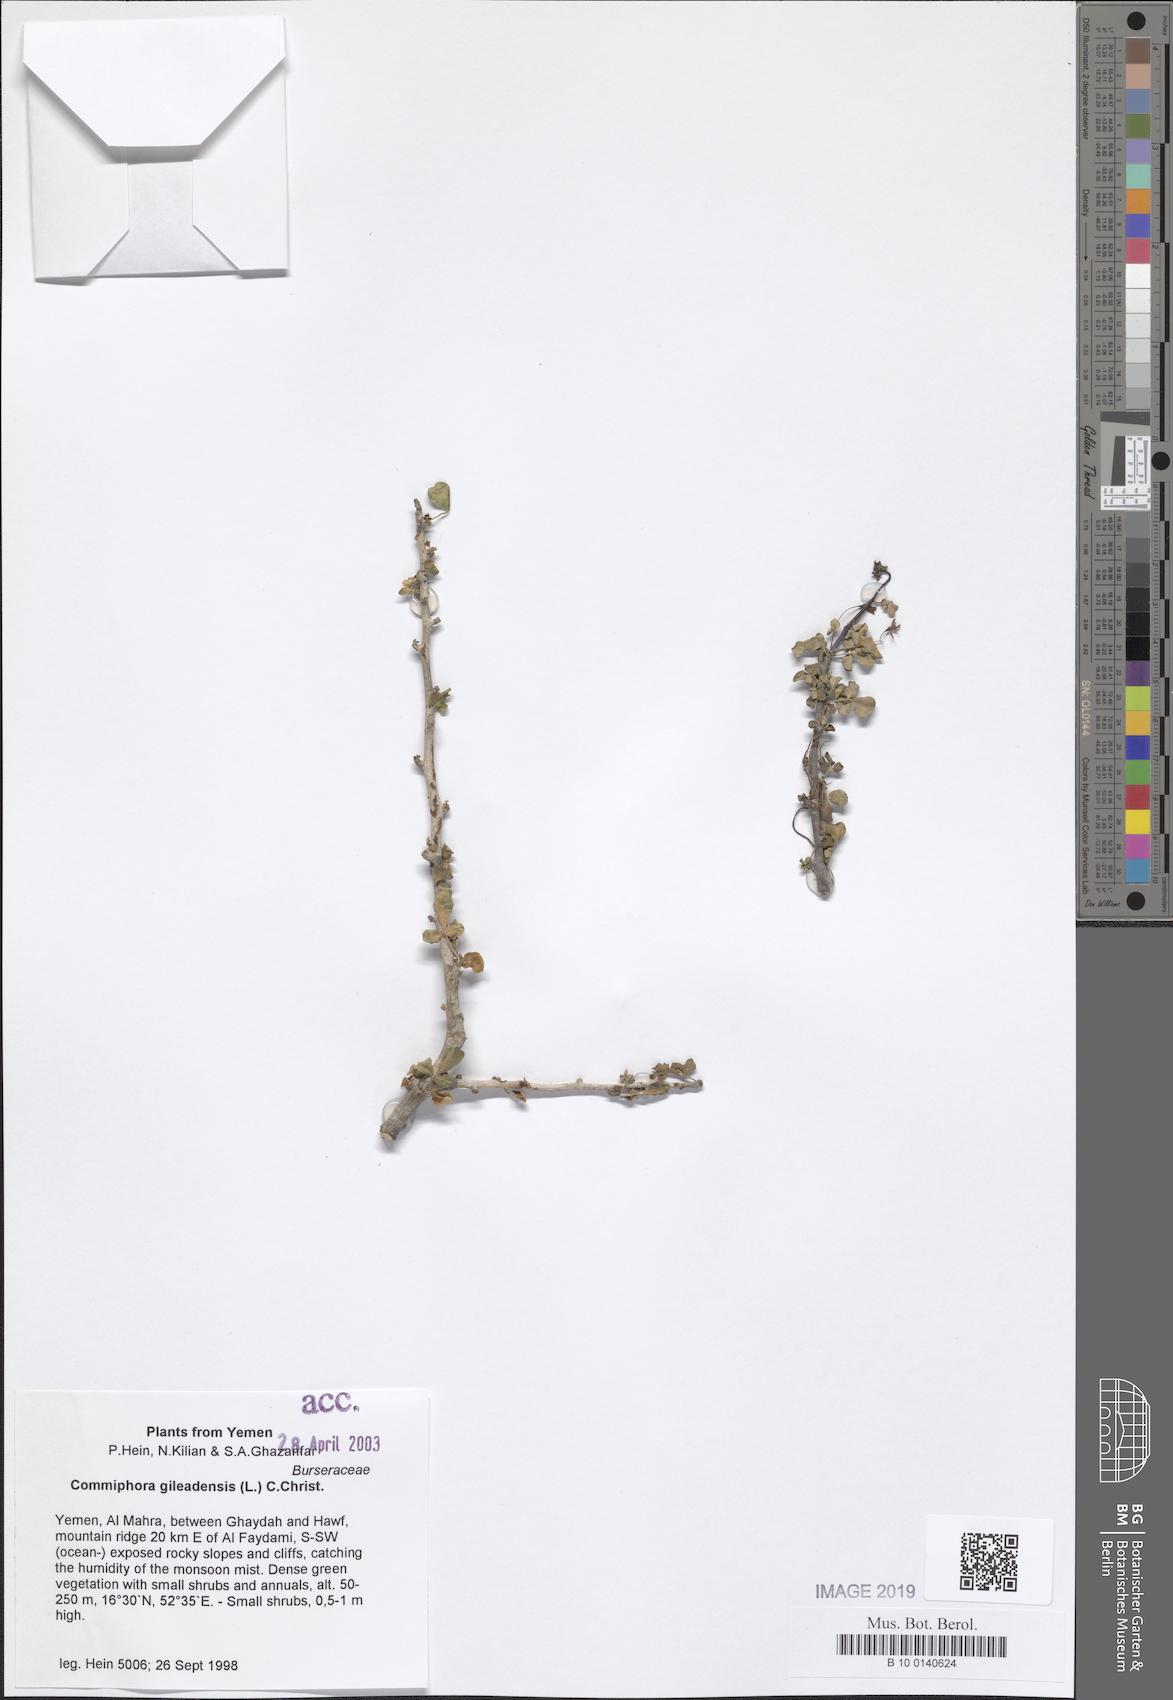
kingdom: Plantae
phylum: Tracheophyta
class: Magnoliopsida
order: Sapindales
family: Burseraceae
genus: Commiphora
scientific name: Commiphora gileadensis
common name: Balm-of-gilead
